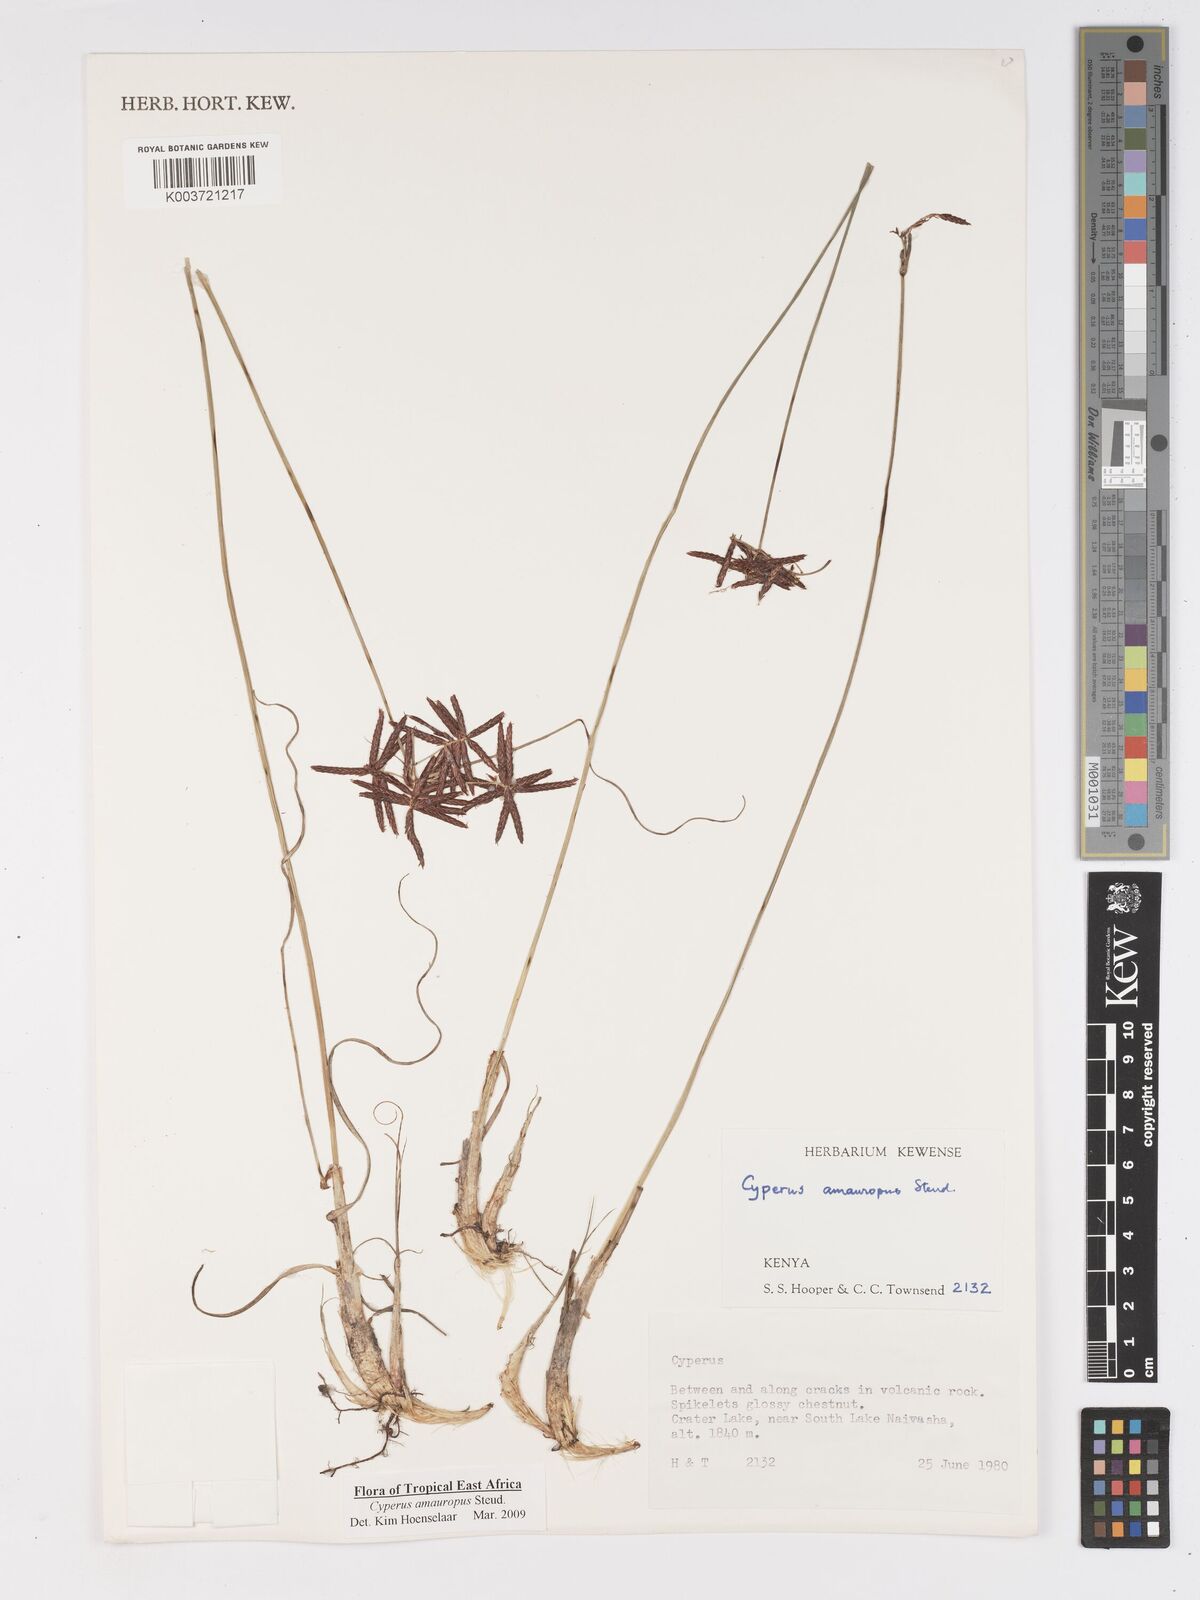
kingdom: Plantae
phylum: Tracheophyta
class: Liliopsida
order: Poales
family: Cyperaceae
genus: Cyperus
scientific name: Cyperus amauropus
